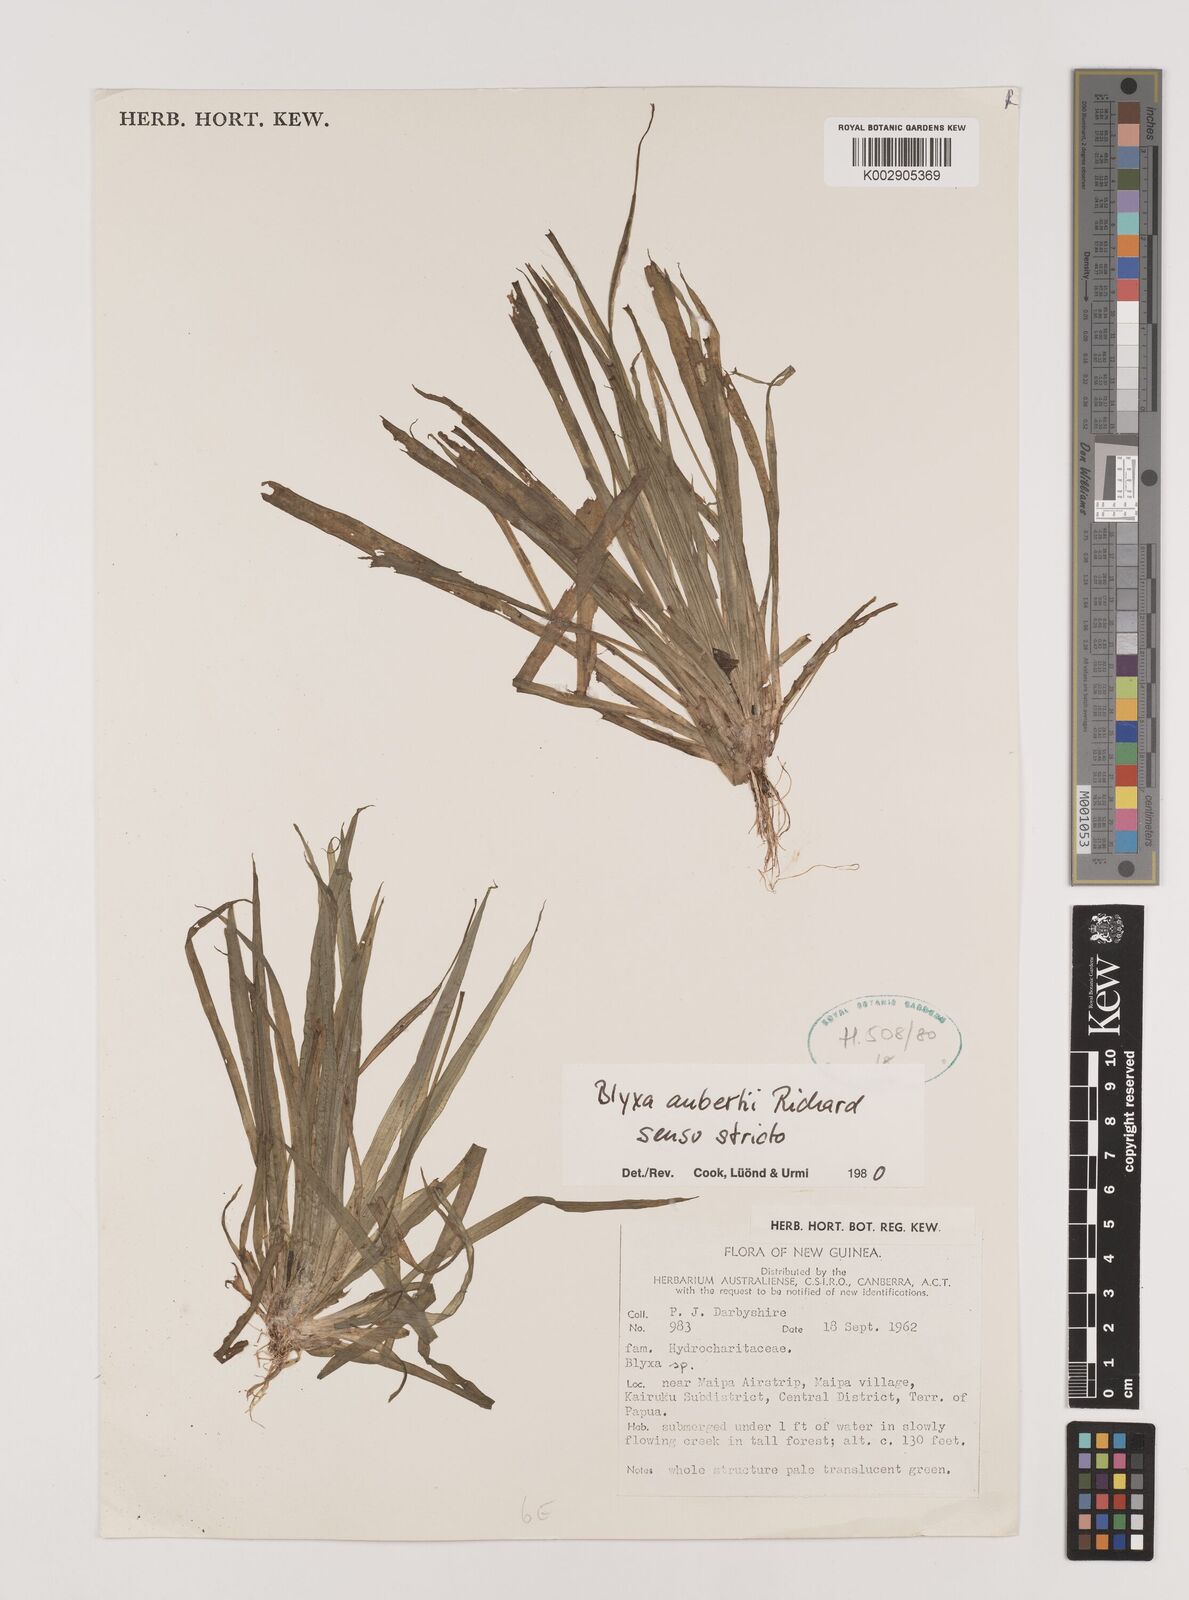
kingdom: Plantae
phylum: Tracheophyta
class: Liliopsida
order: Alismatales
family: Hydrocharitaceae
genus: Blyxa
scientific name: Blyxa aubertii
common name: Roundfruit blyxa
